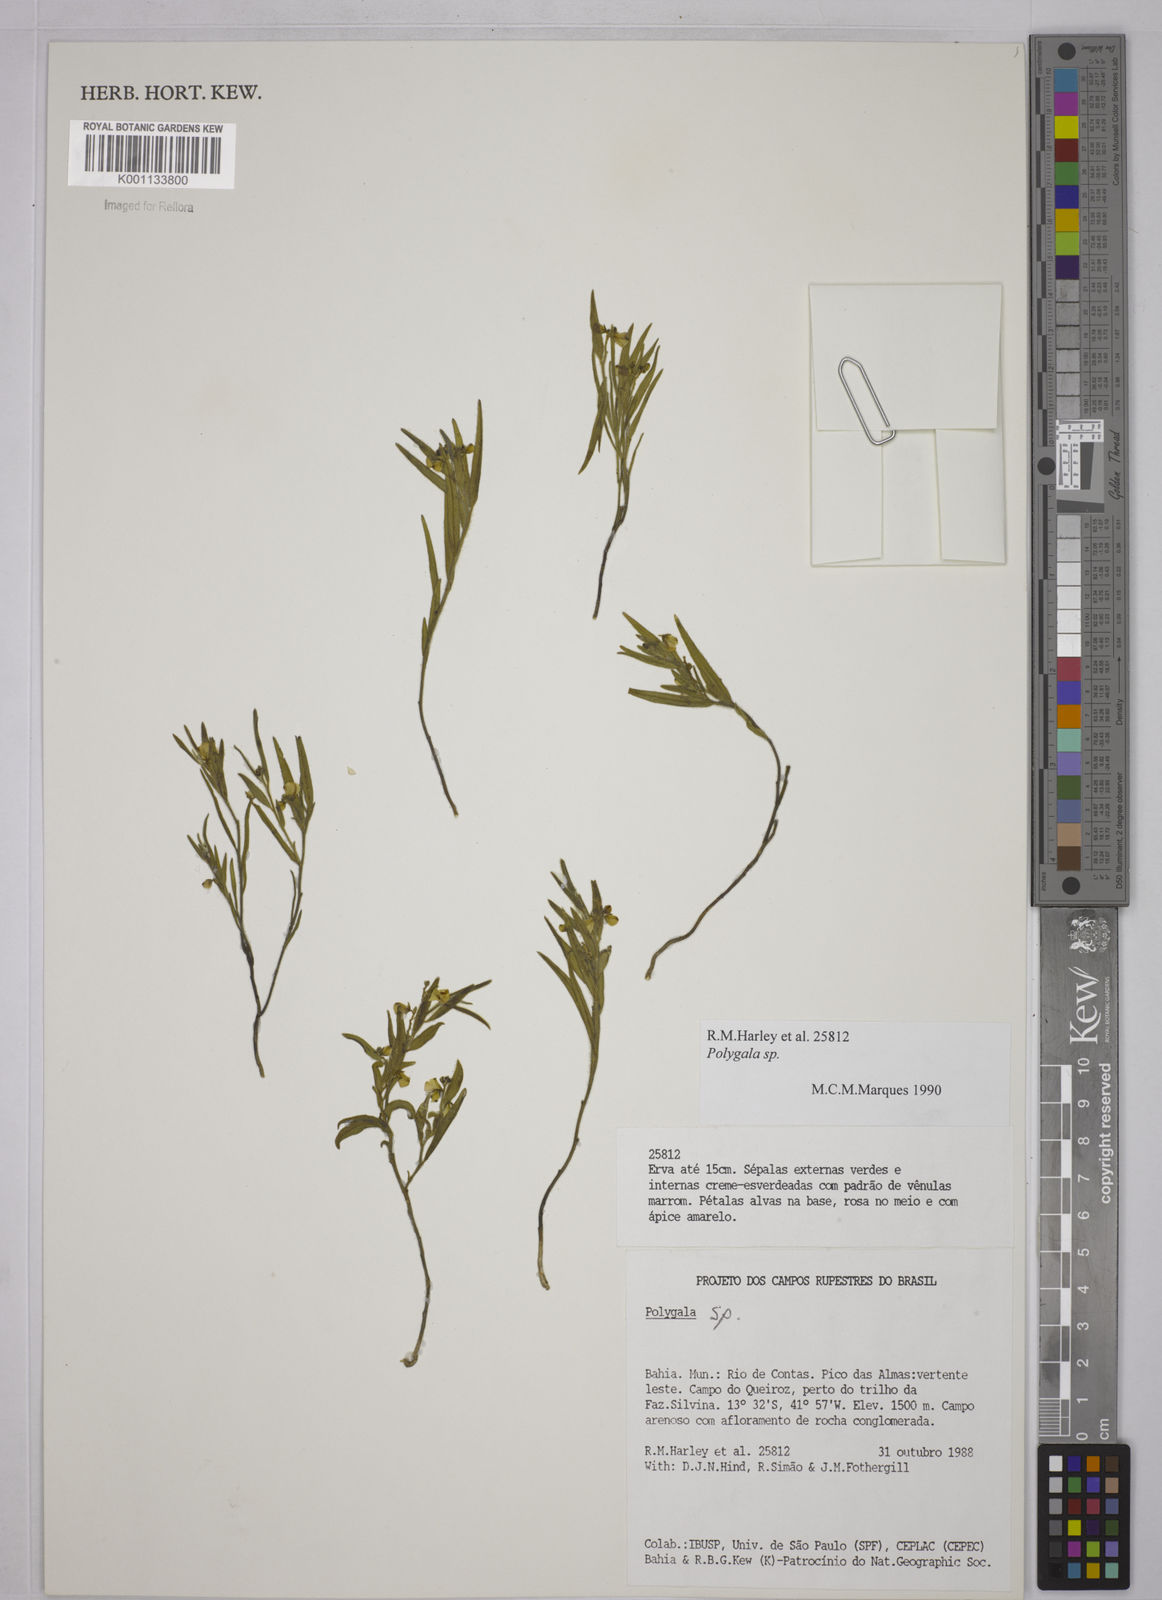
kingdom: Plantae
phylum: Tracheophyta
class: Magnoliopsida
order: Fabales
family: Polygalaceae
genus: Polygala
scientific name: Polygala
